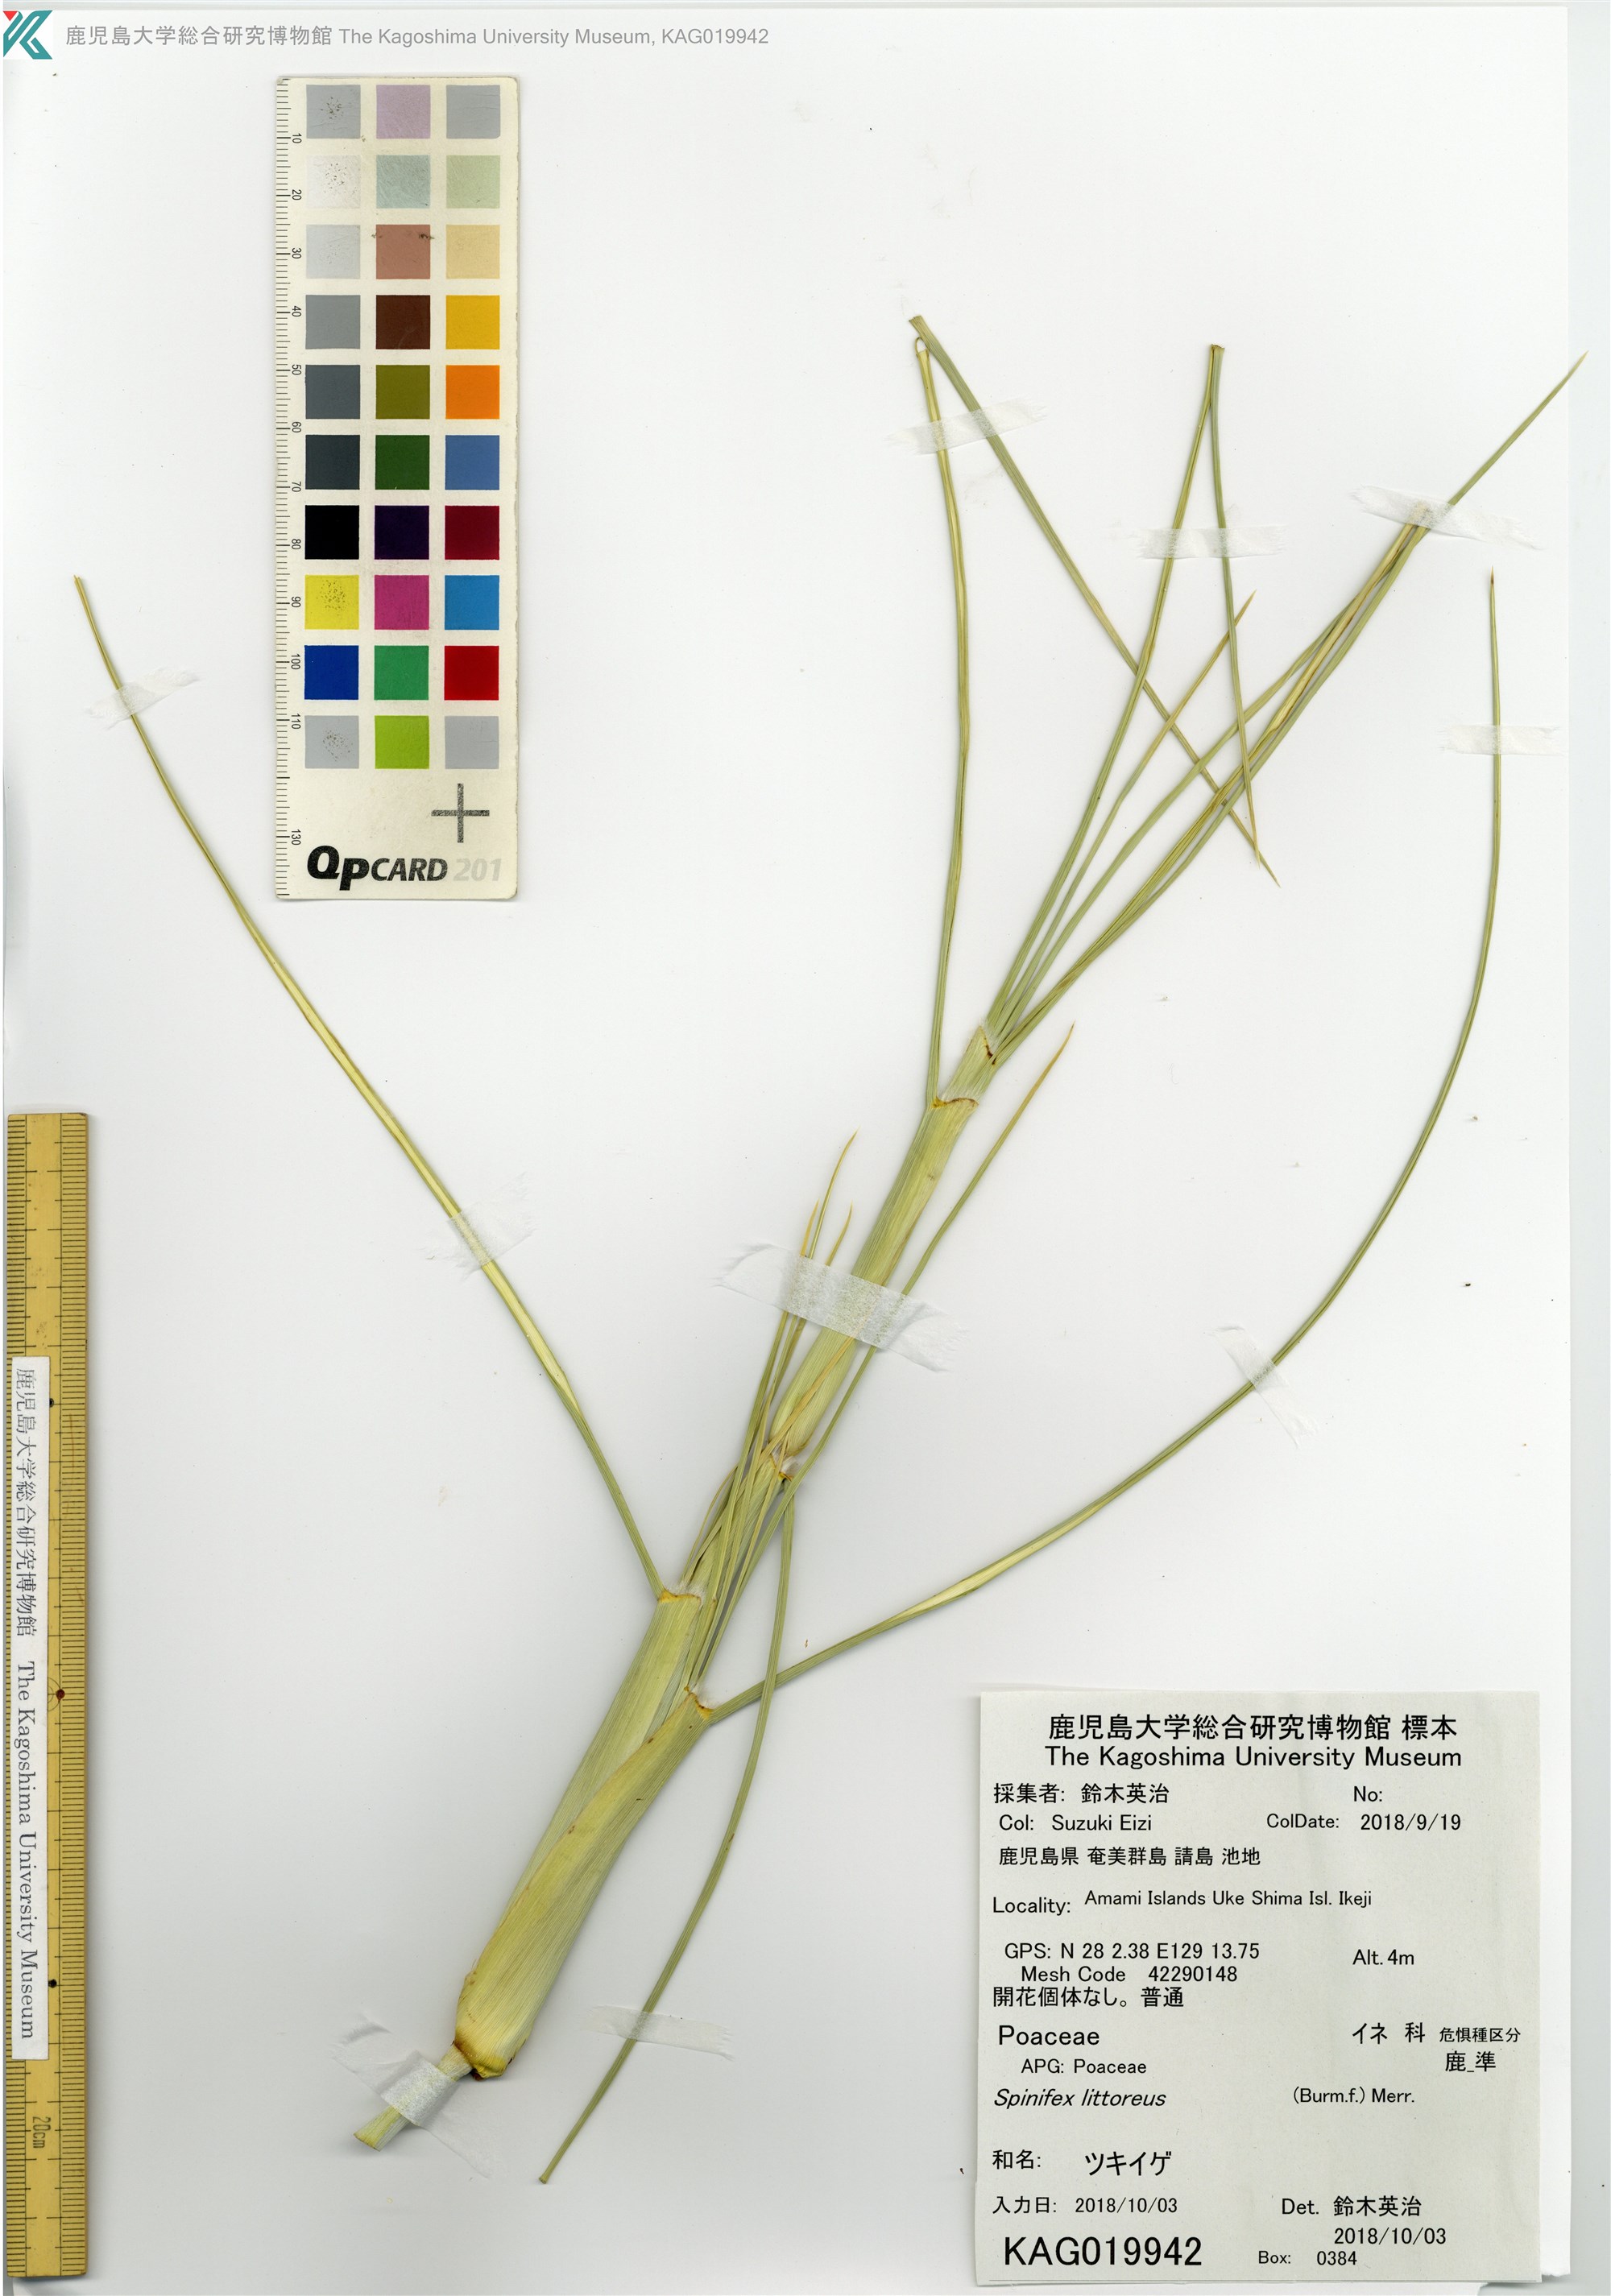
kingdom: Plantae
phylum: Tracheophyta
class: Liliopsida
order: Poales
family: Poaceae
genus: Spinifex
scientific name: Spinifex littoreus
